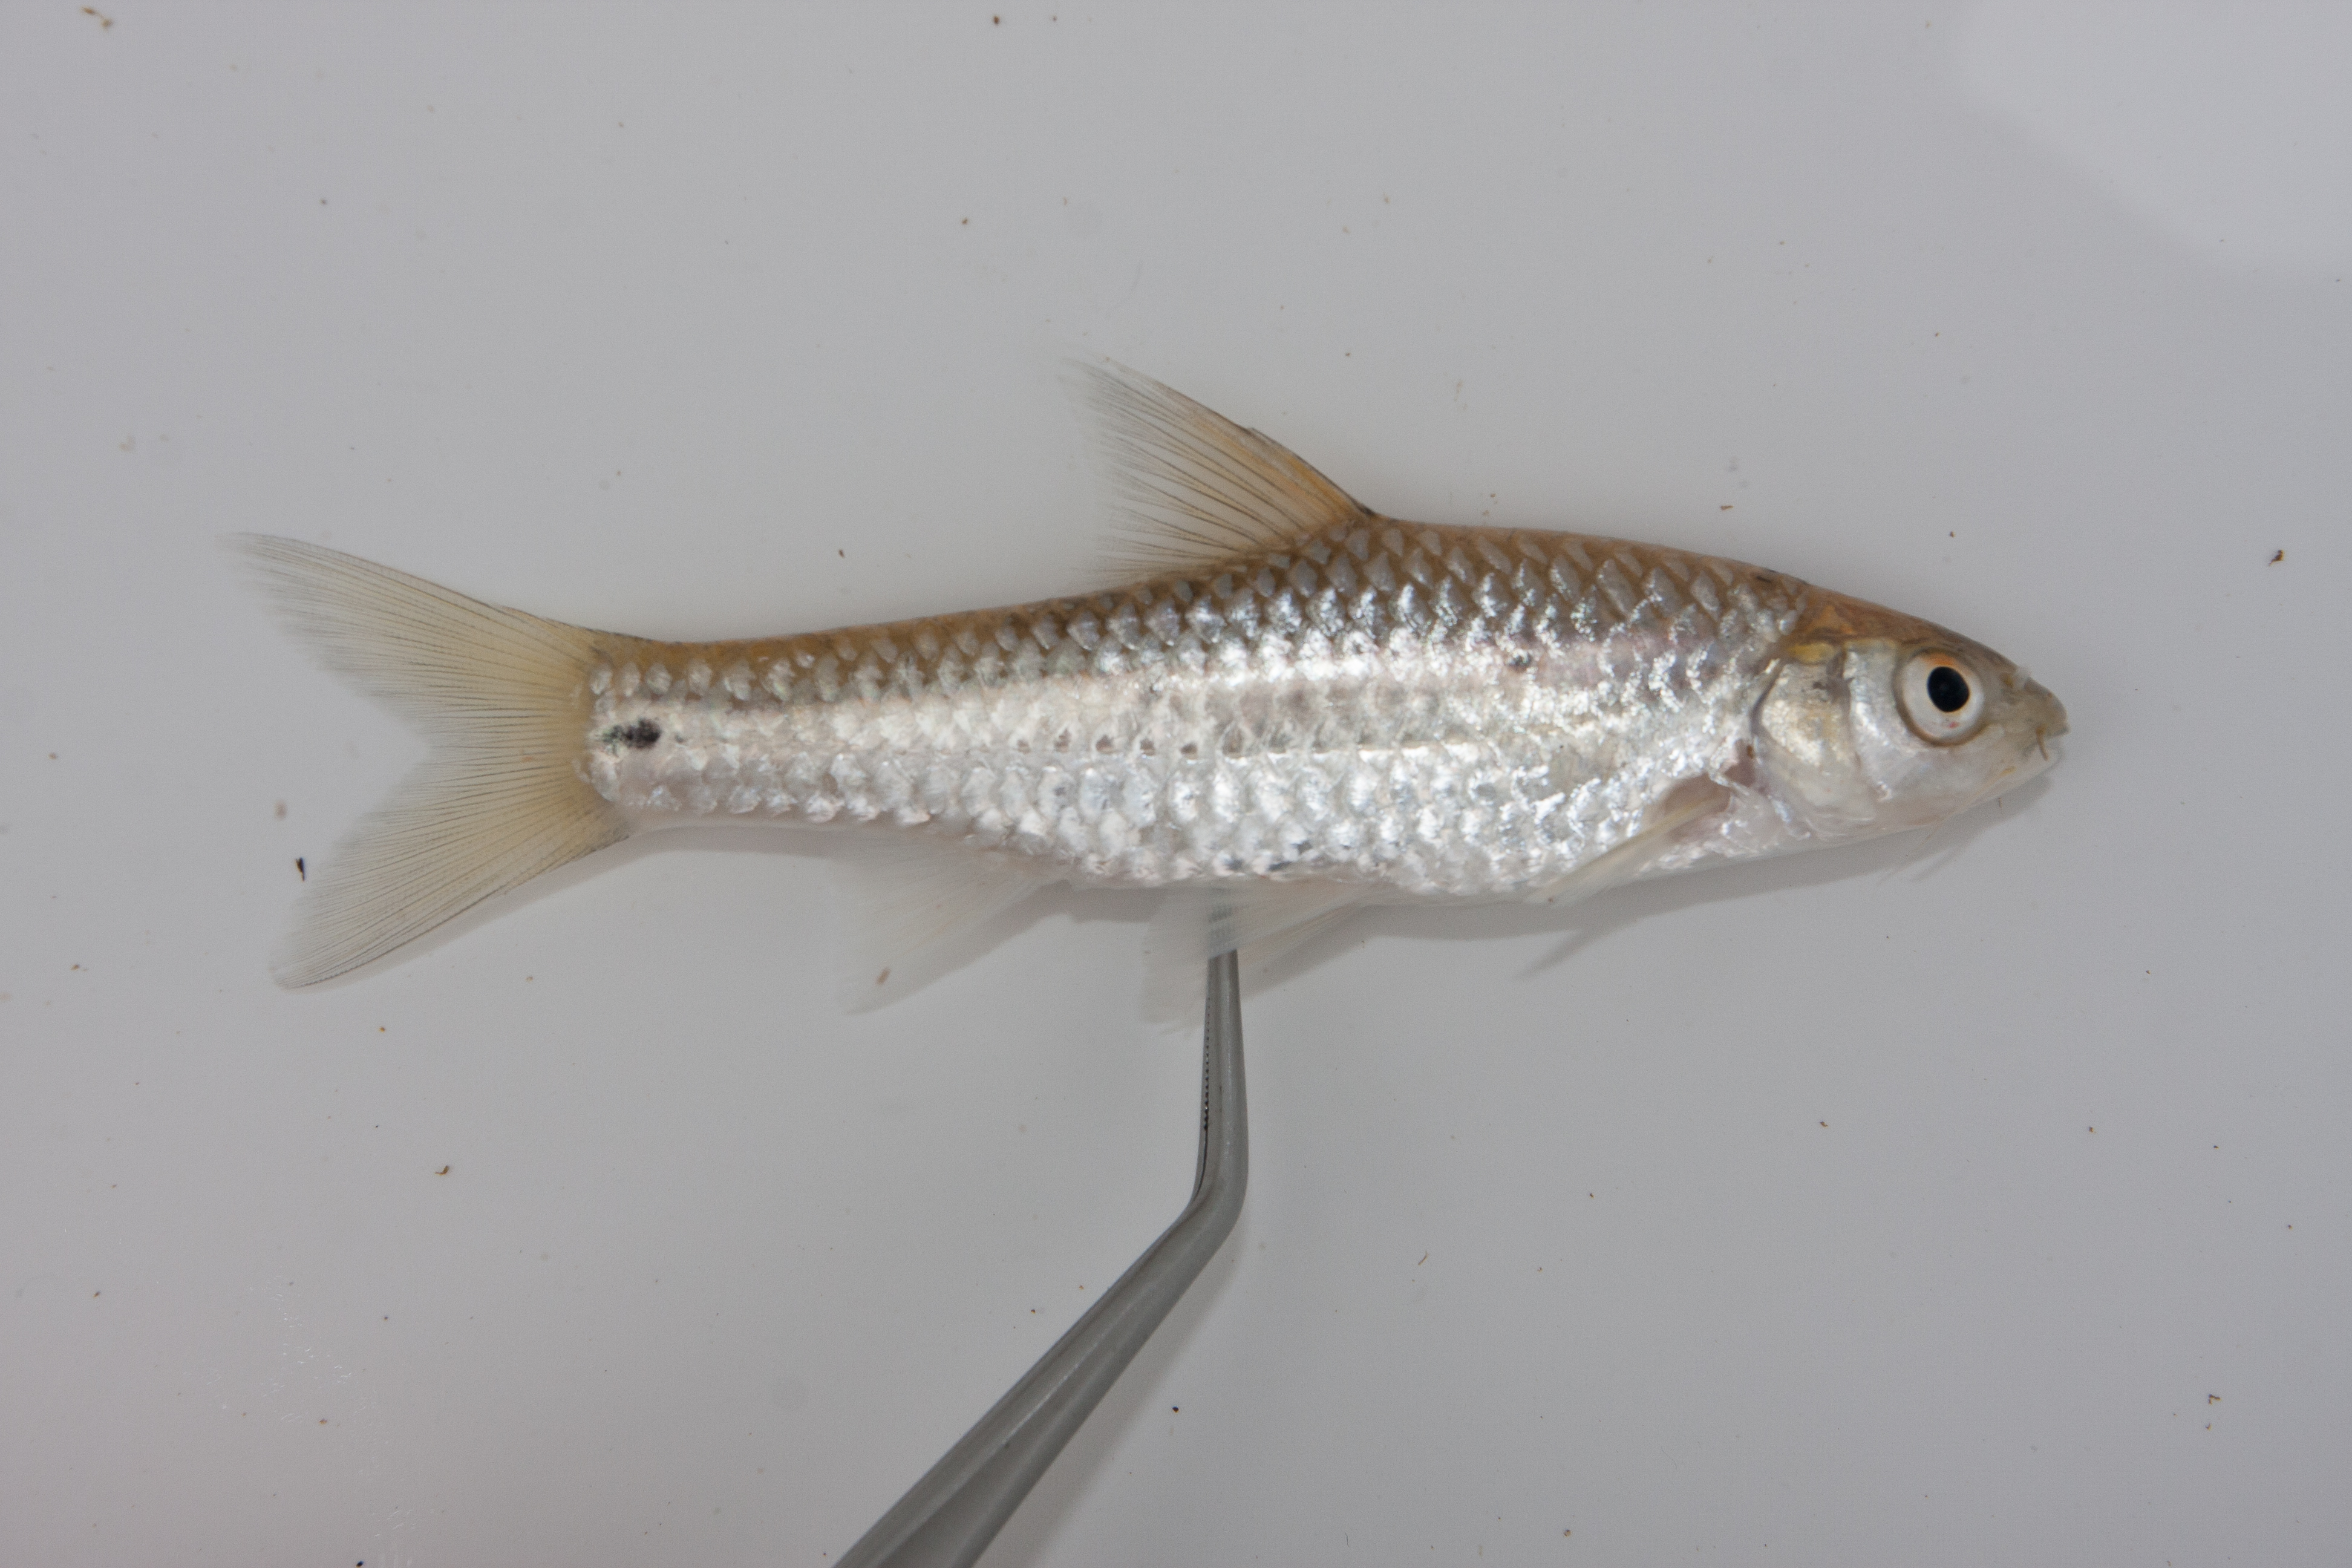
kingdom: Animalia
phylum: Chordata
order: Cypriniformes
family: Cyprinidae
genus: Enteromius
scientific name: Enteromius trimaculatus
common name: Threespot barb
